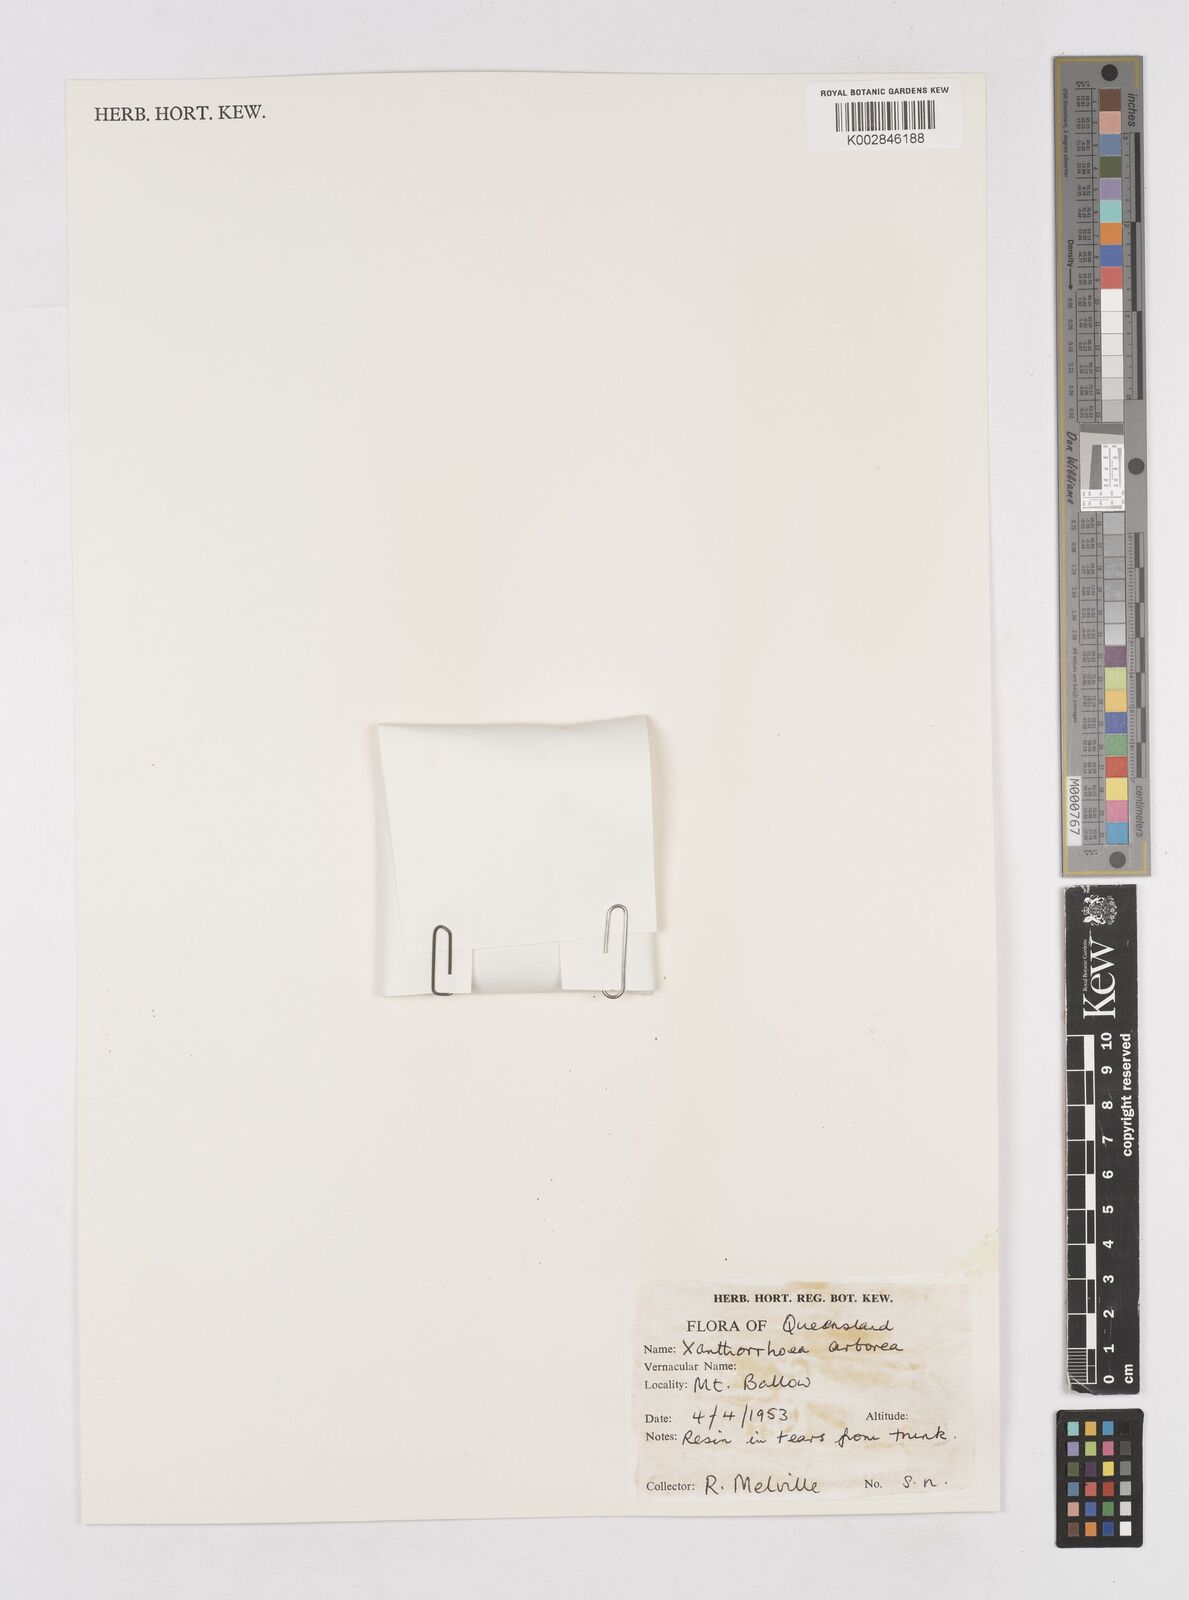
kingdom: Plantae
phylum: Tracheophyta
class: Liliopsida
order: Asparagales
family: Asphodelaceae
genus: Xanthorrhoea
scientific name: Xanthorrhoea arborea
